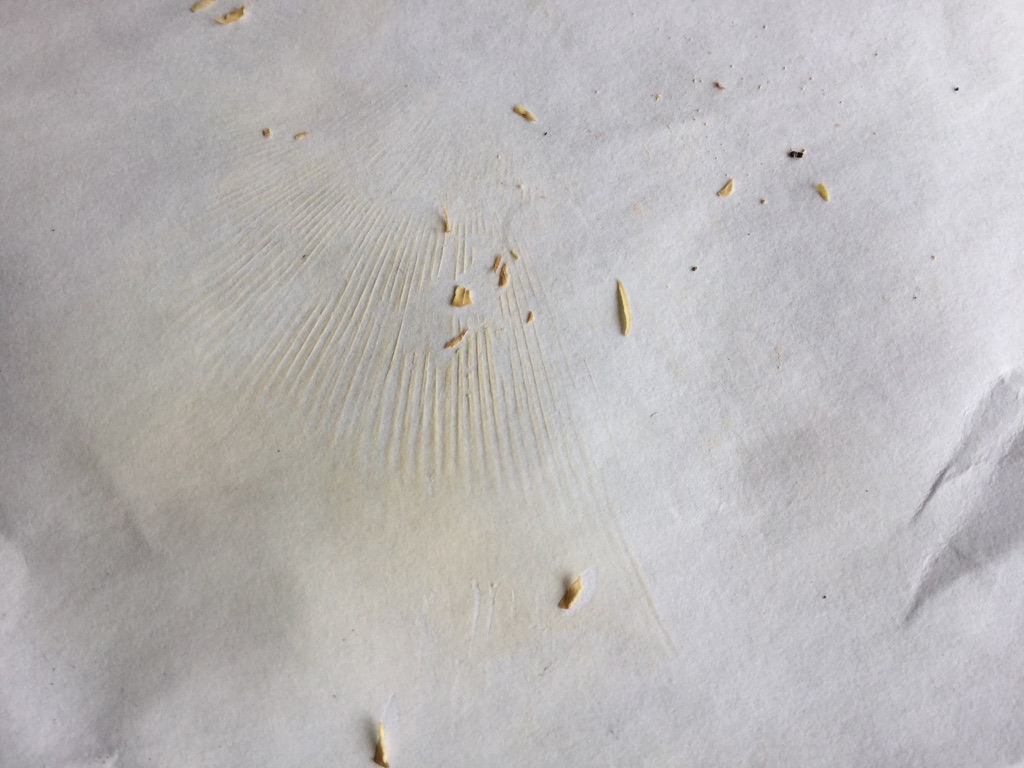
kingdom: Fungi
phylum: Basidiomycota
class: Agaricomycetes
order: Russulales
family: Russulaceae
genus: Russula
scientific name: Russula aeruginea
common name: græsgrøn skørhat
